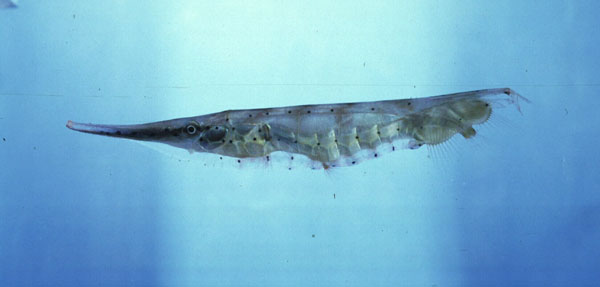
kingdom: Animalia
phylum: Chordata
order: Syngnathiformes
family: Centriscidae
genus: Aeoliscus
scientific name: Aeoliscus punctulatus
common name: Razorfish
